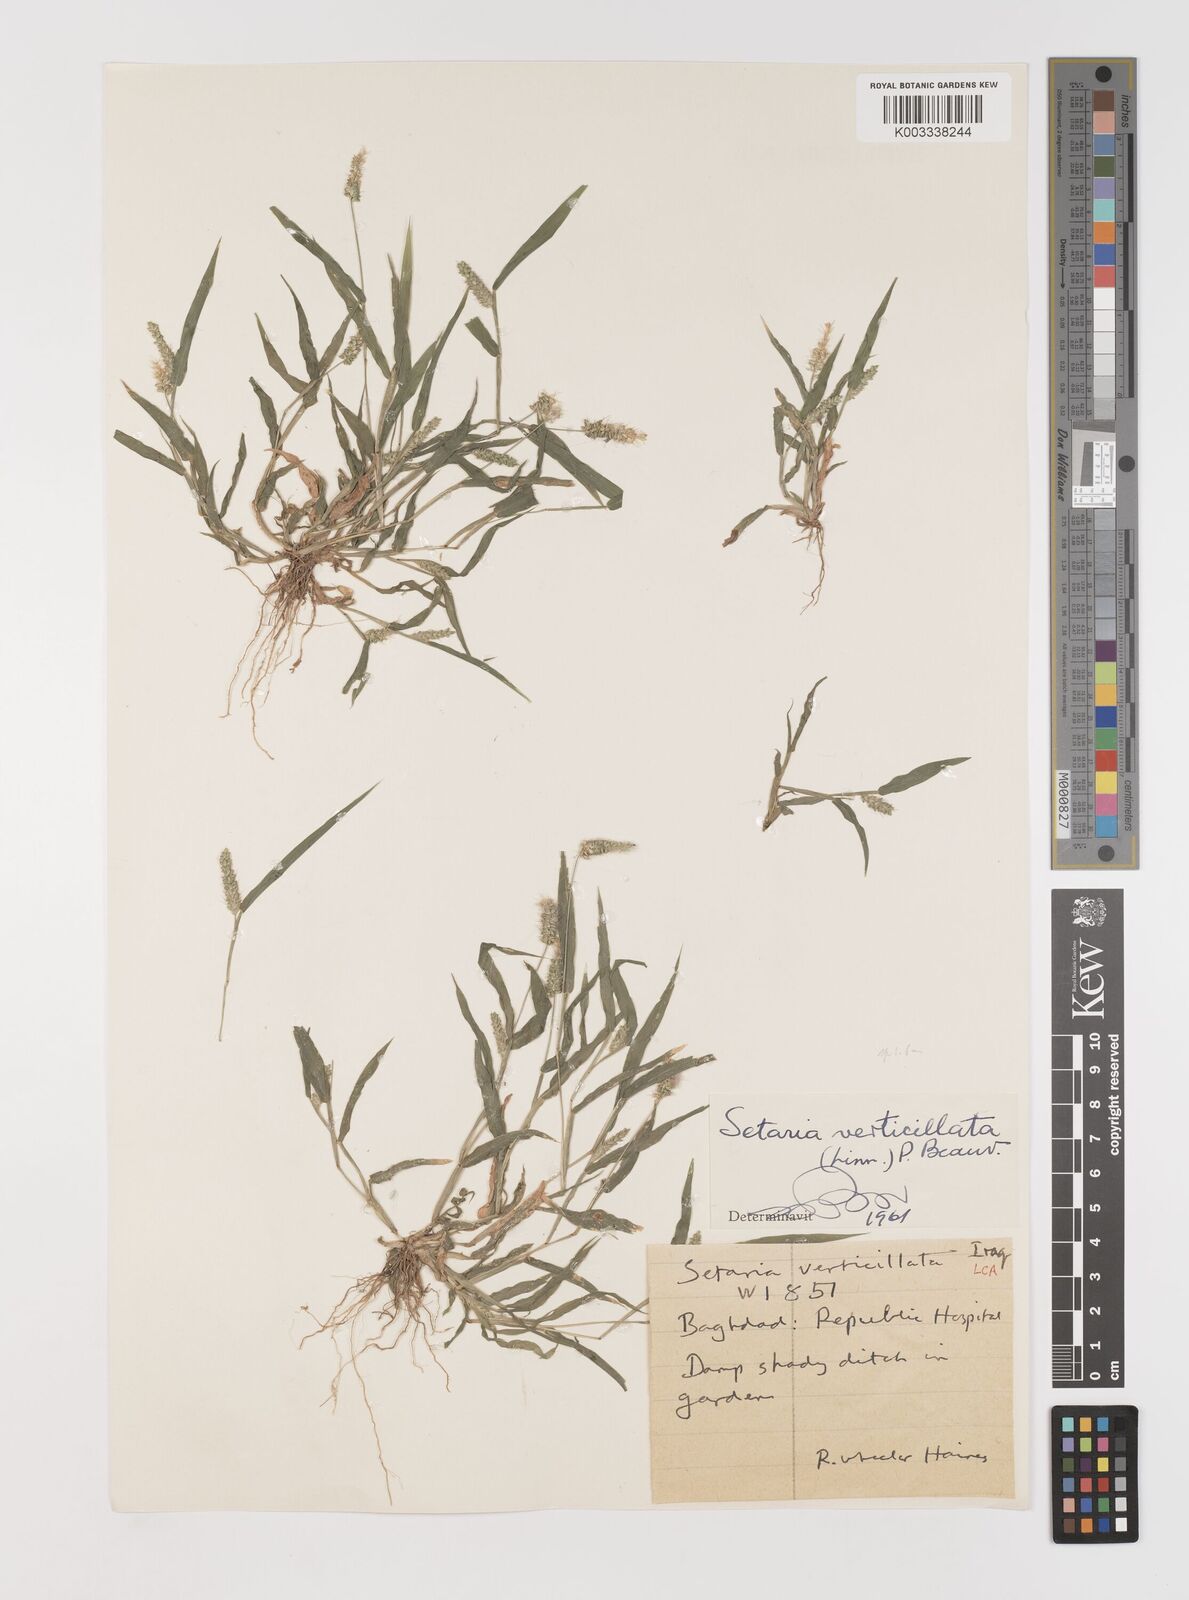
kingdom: Plantae
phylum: Tracheophyta
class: Liliopsida
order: Poales
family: Poaceae
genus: Setaria
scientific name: Setaria verticillata
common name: Hooked bristlegrass
